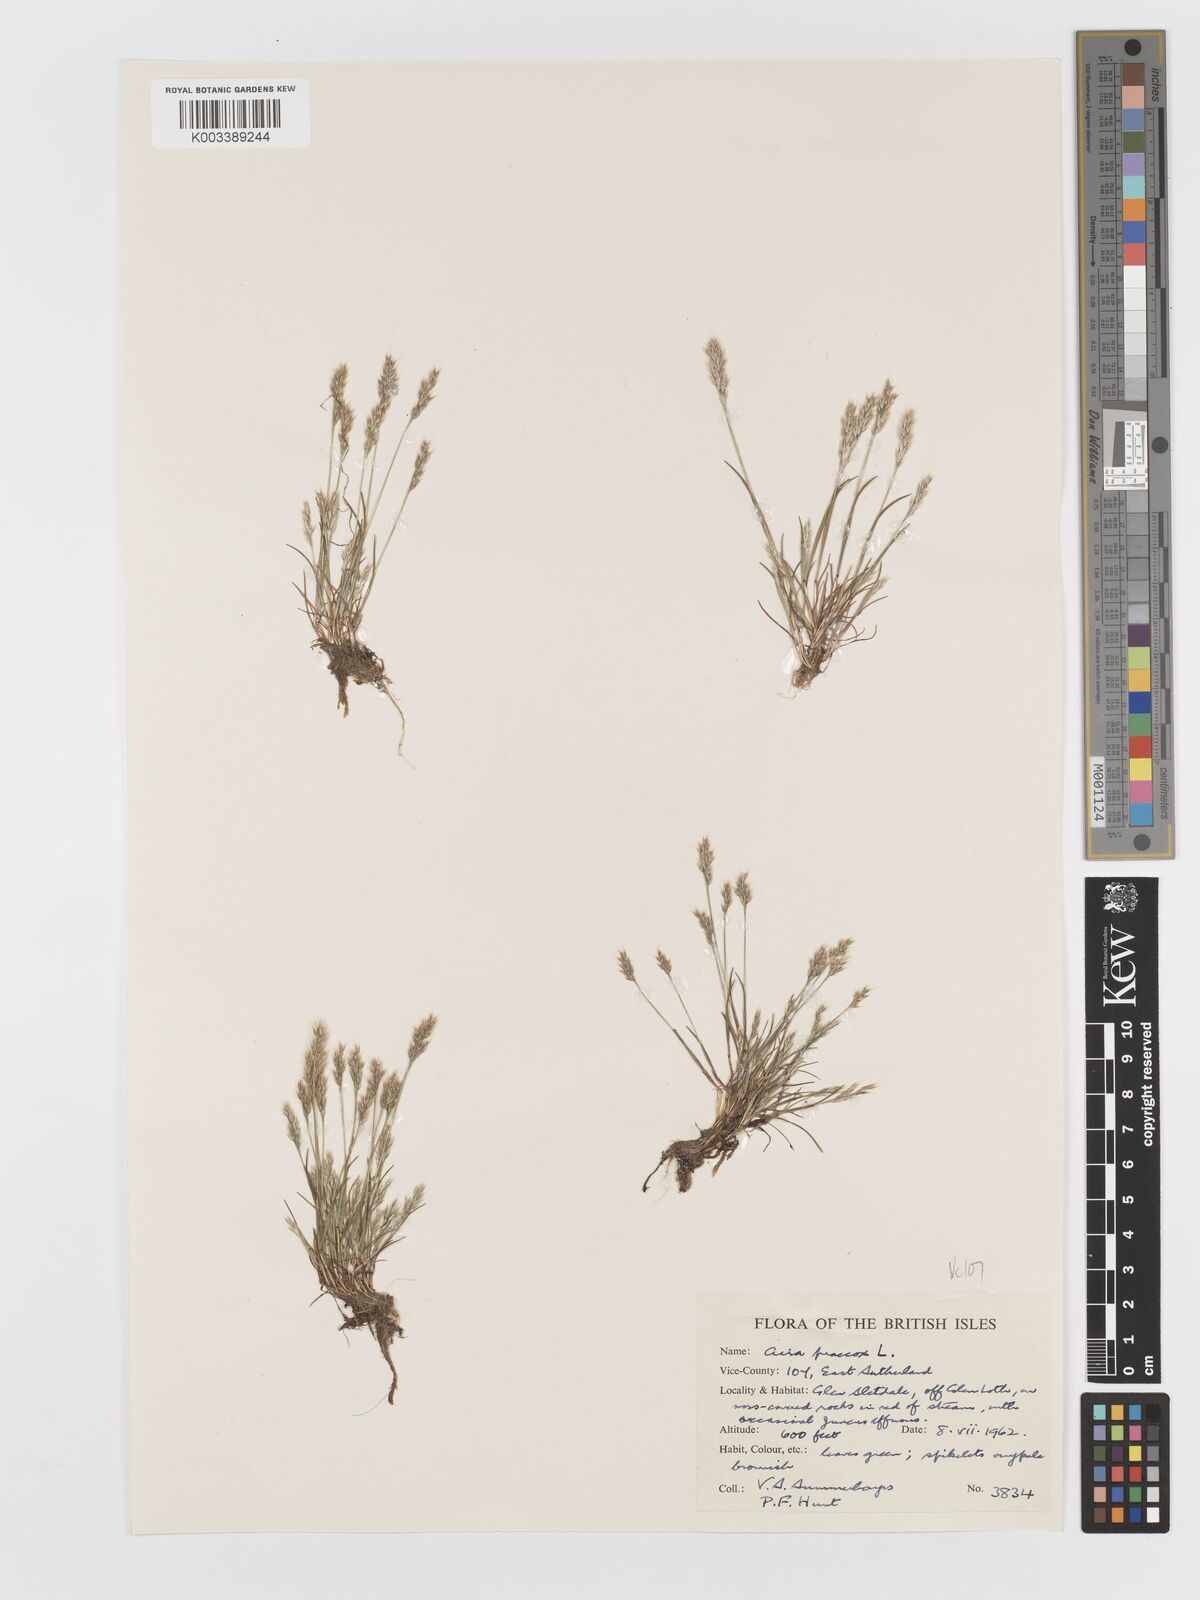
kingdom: Plantae
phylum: Tracheophyta
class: Liliopsida
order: Poales
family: Poaceae
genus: Aira
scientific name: Aira praecox
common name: Early hair-grass
